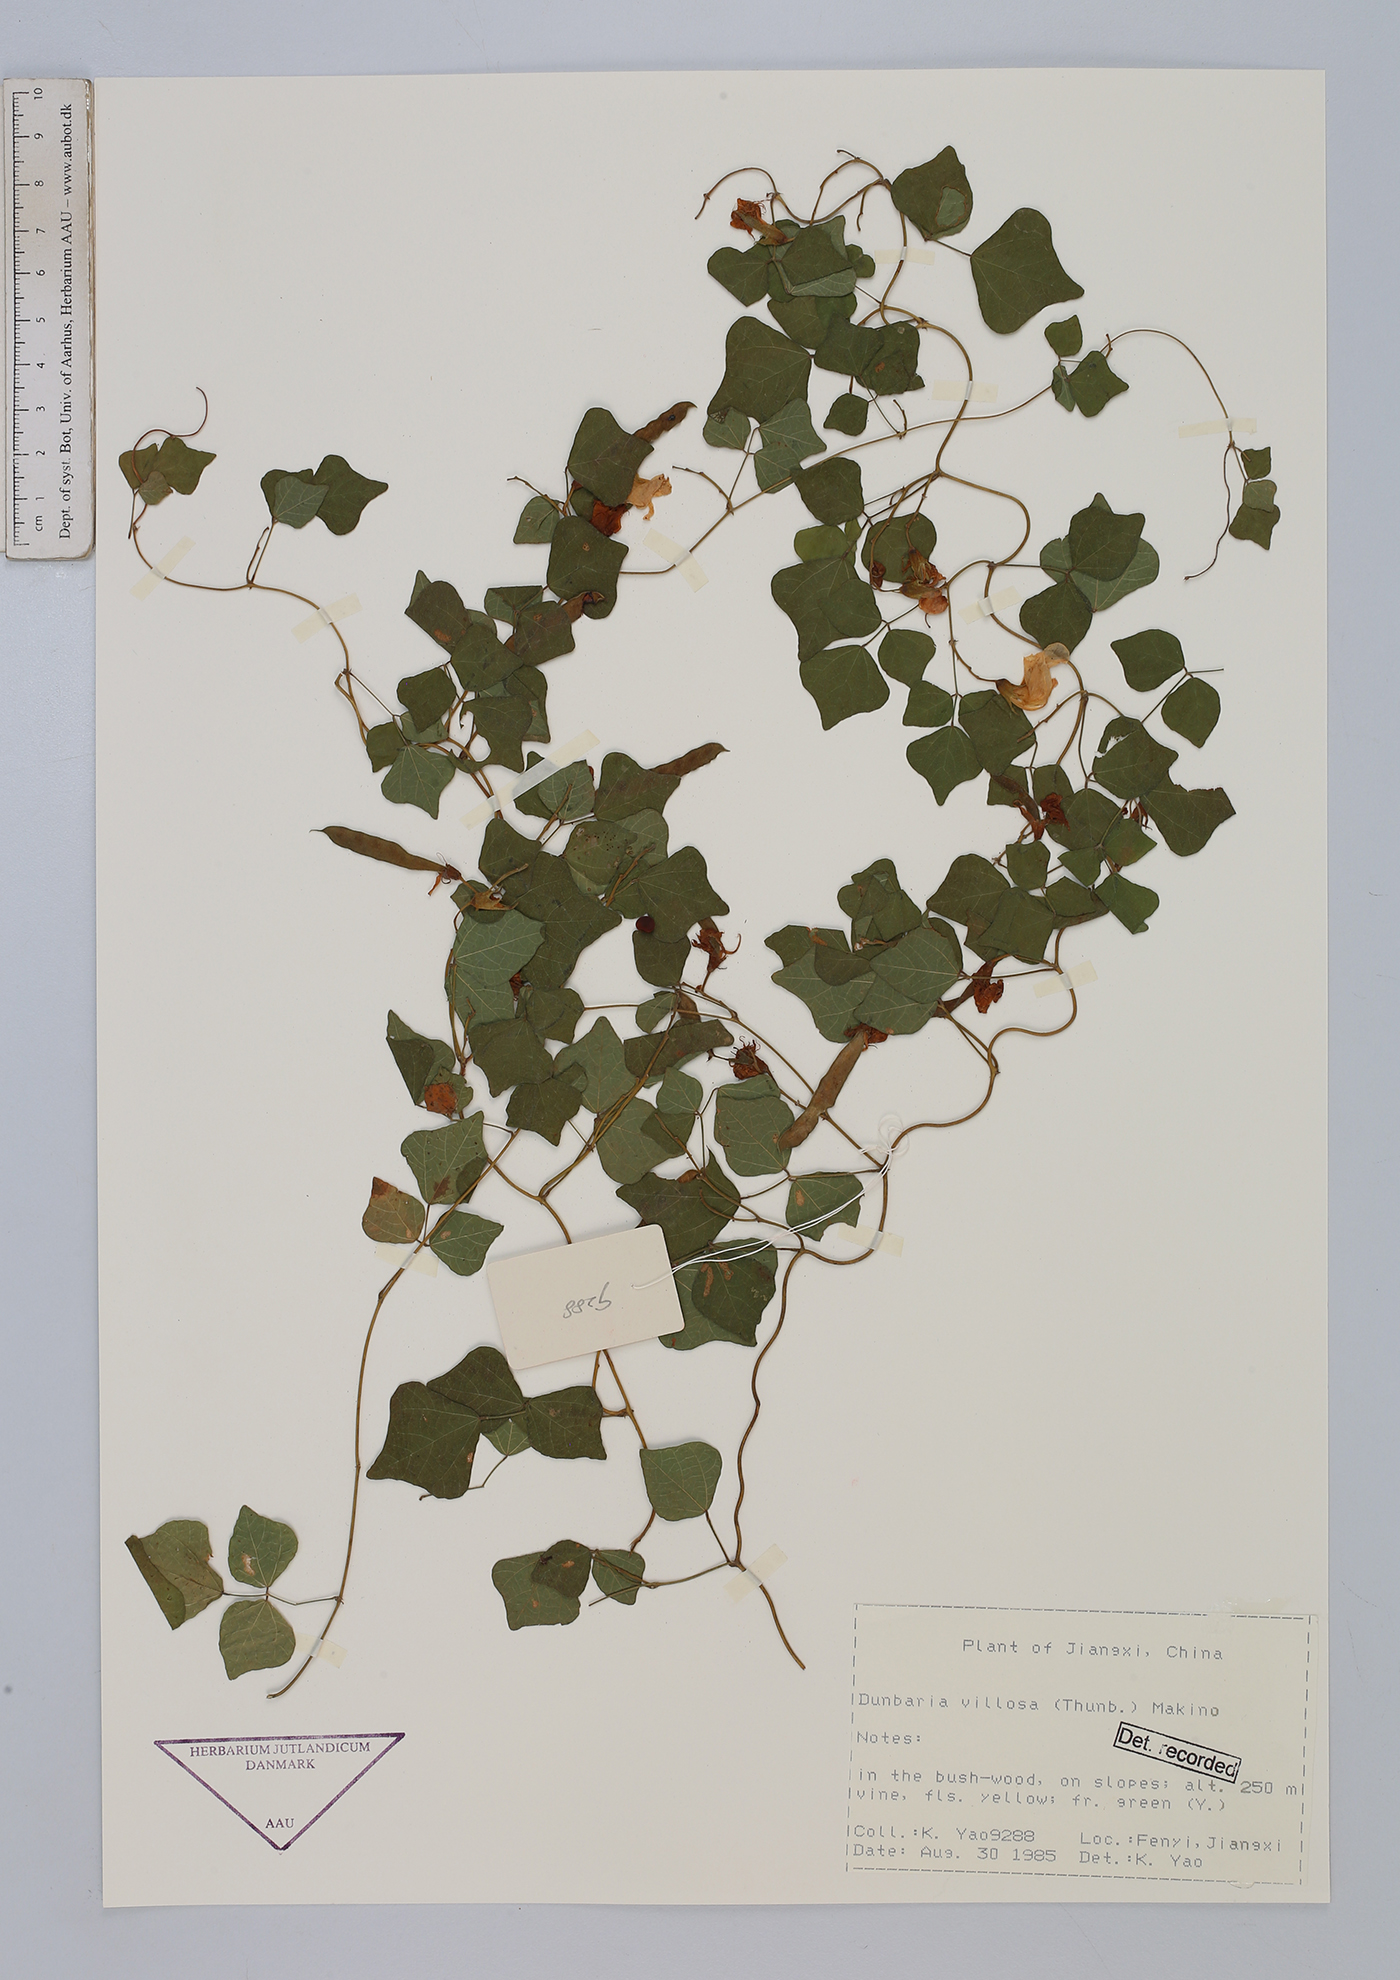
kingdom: Plantae
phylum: Tracheophyta
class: Magnoliopsida
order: Fabales
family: Fabaceae
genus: Dunbaria
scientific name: Dunbaria villosa
